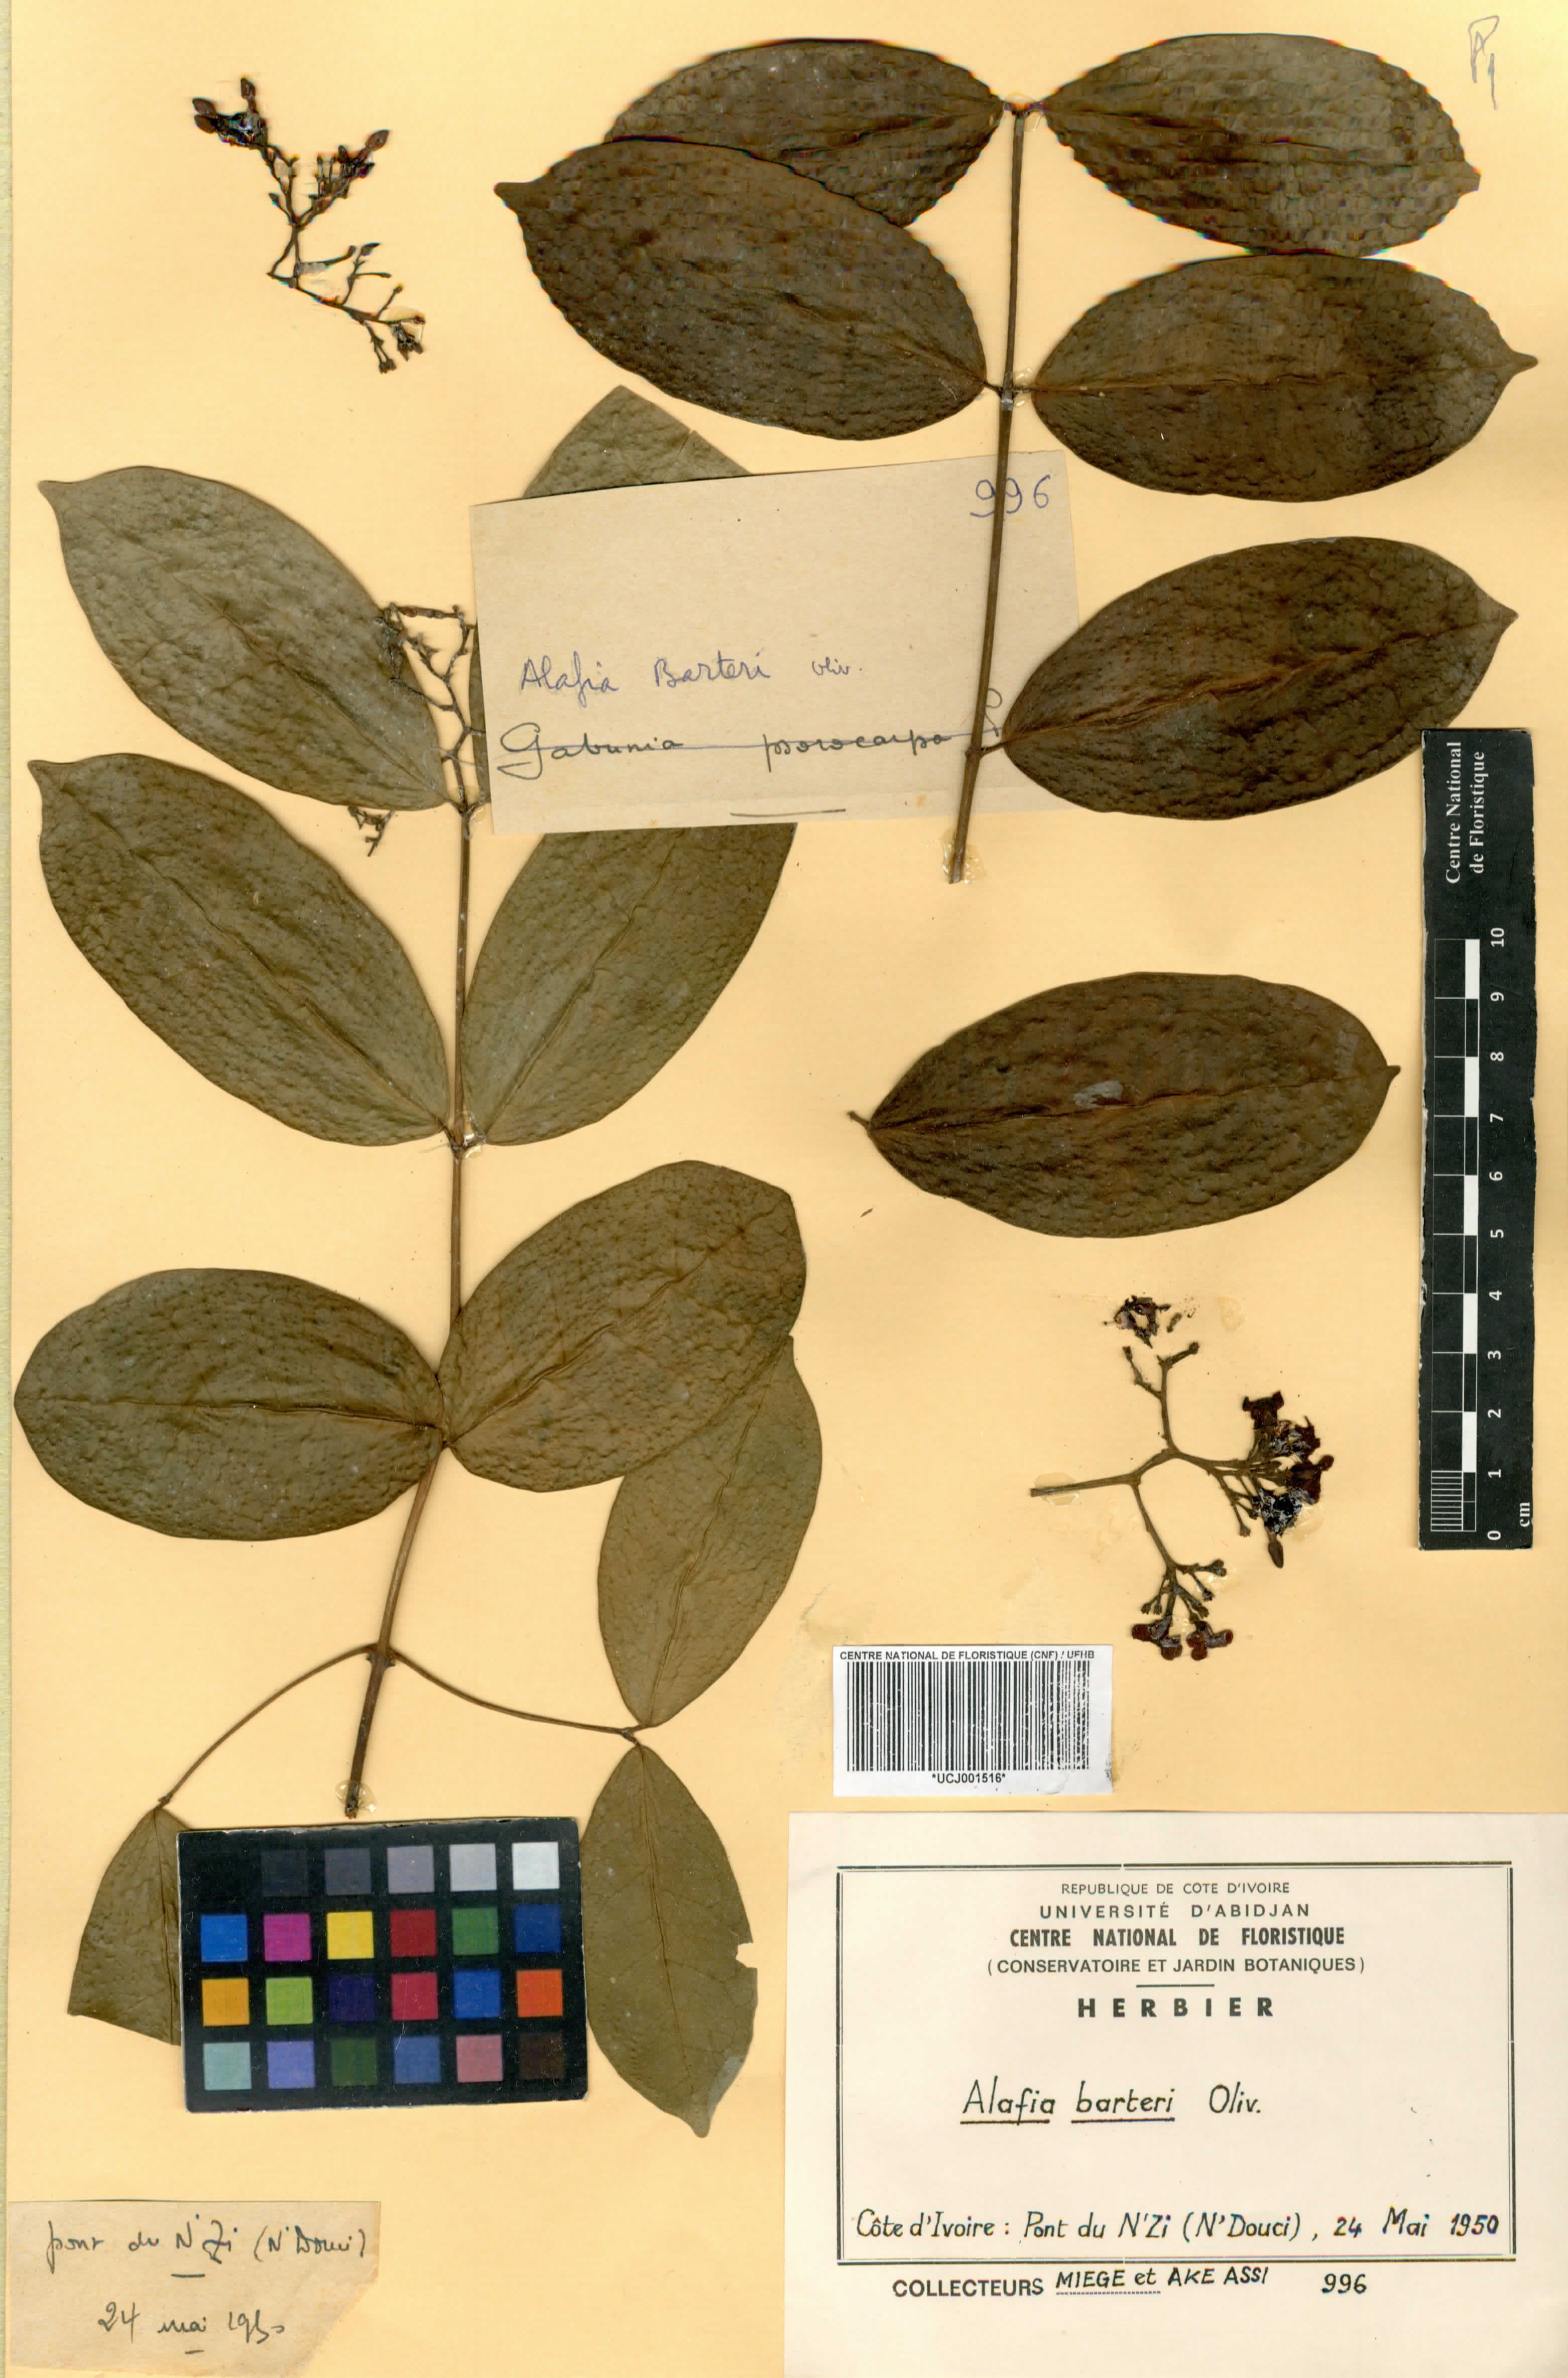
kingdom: Plantae
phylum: Tracheophyta
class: Magnoliopsida
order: Gentianales
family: Apocynaceae
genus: Alafia
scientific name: Alafia barteri
